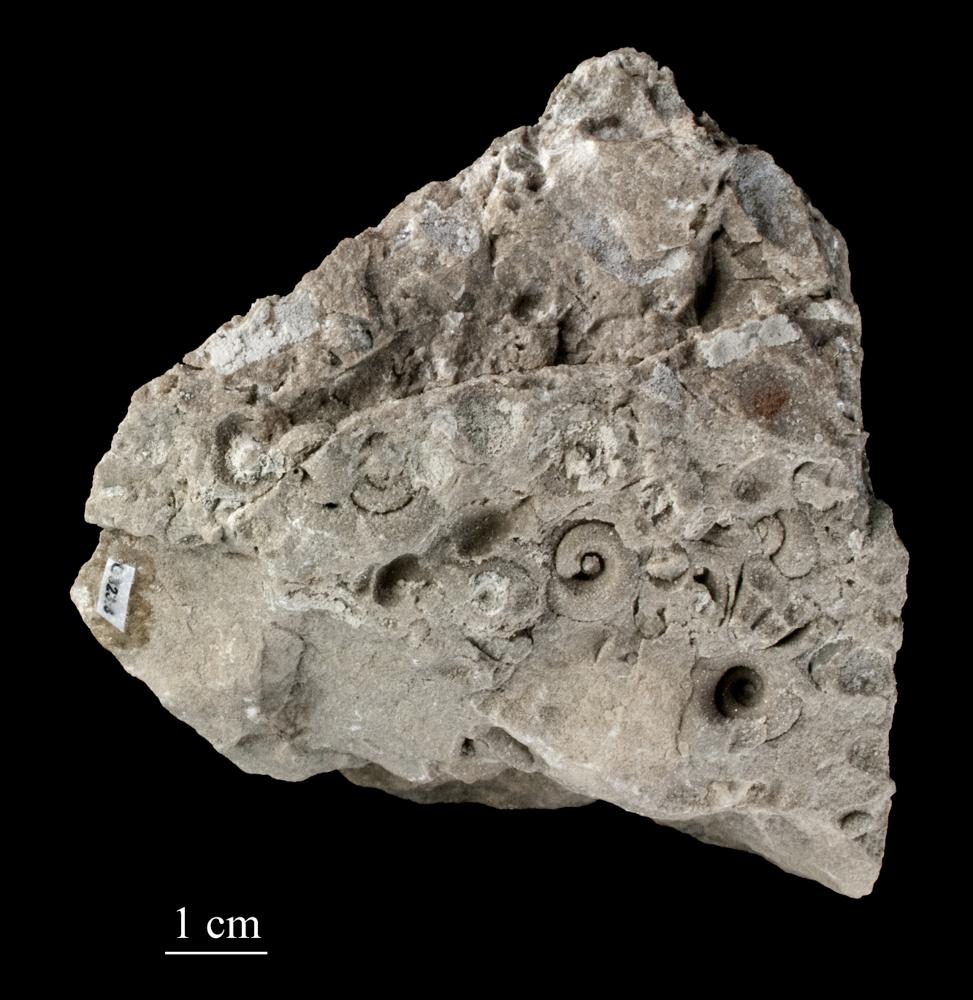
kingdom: Plantae
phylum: Tracheophyta
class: Pinopsida
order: Pinales
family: Cupressaceae
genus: Platycladus
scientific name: Platycladus
